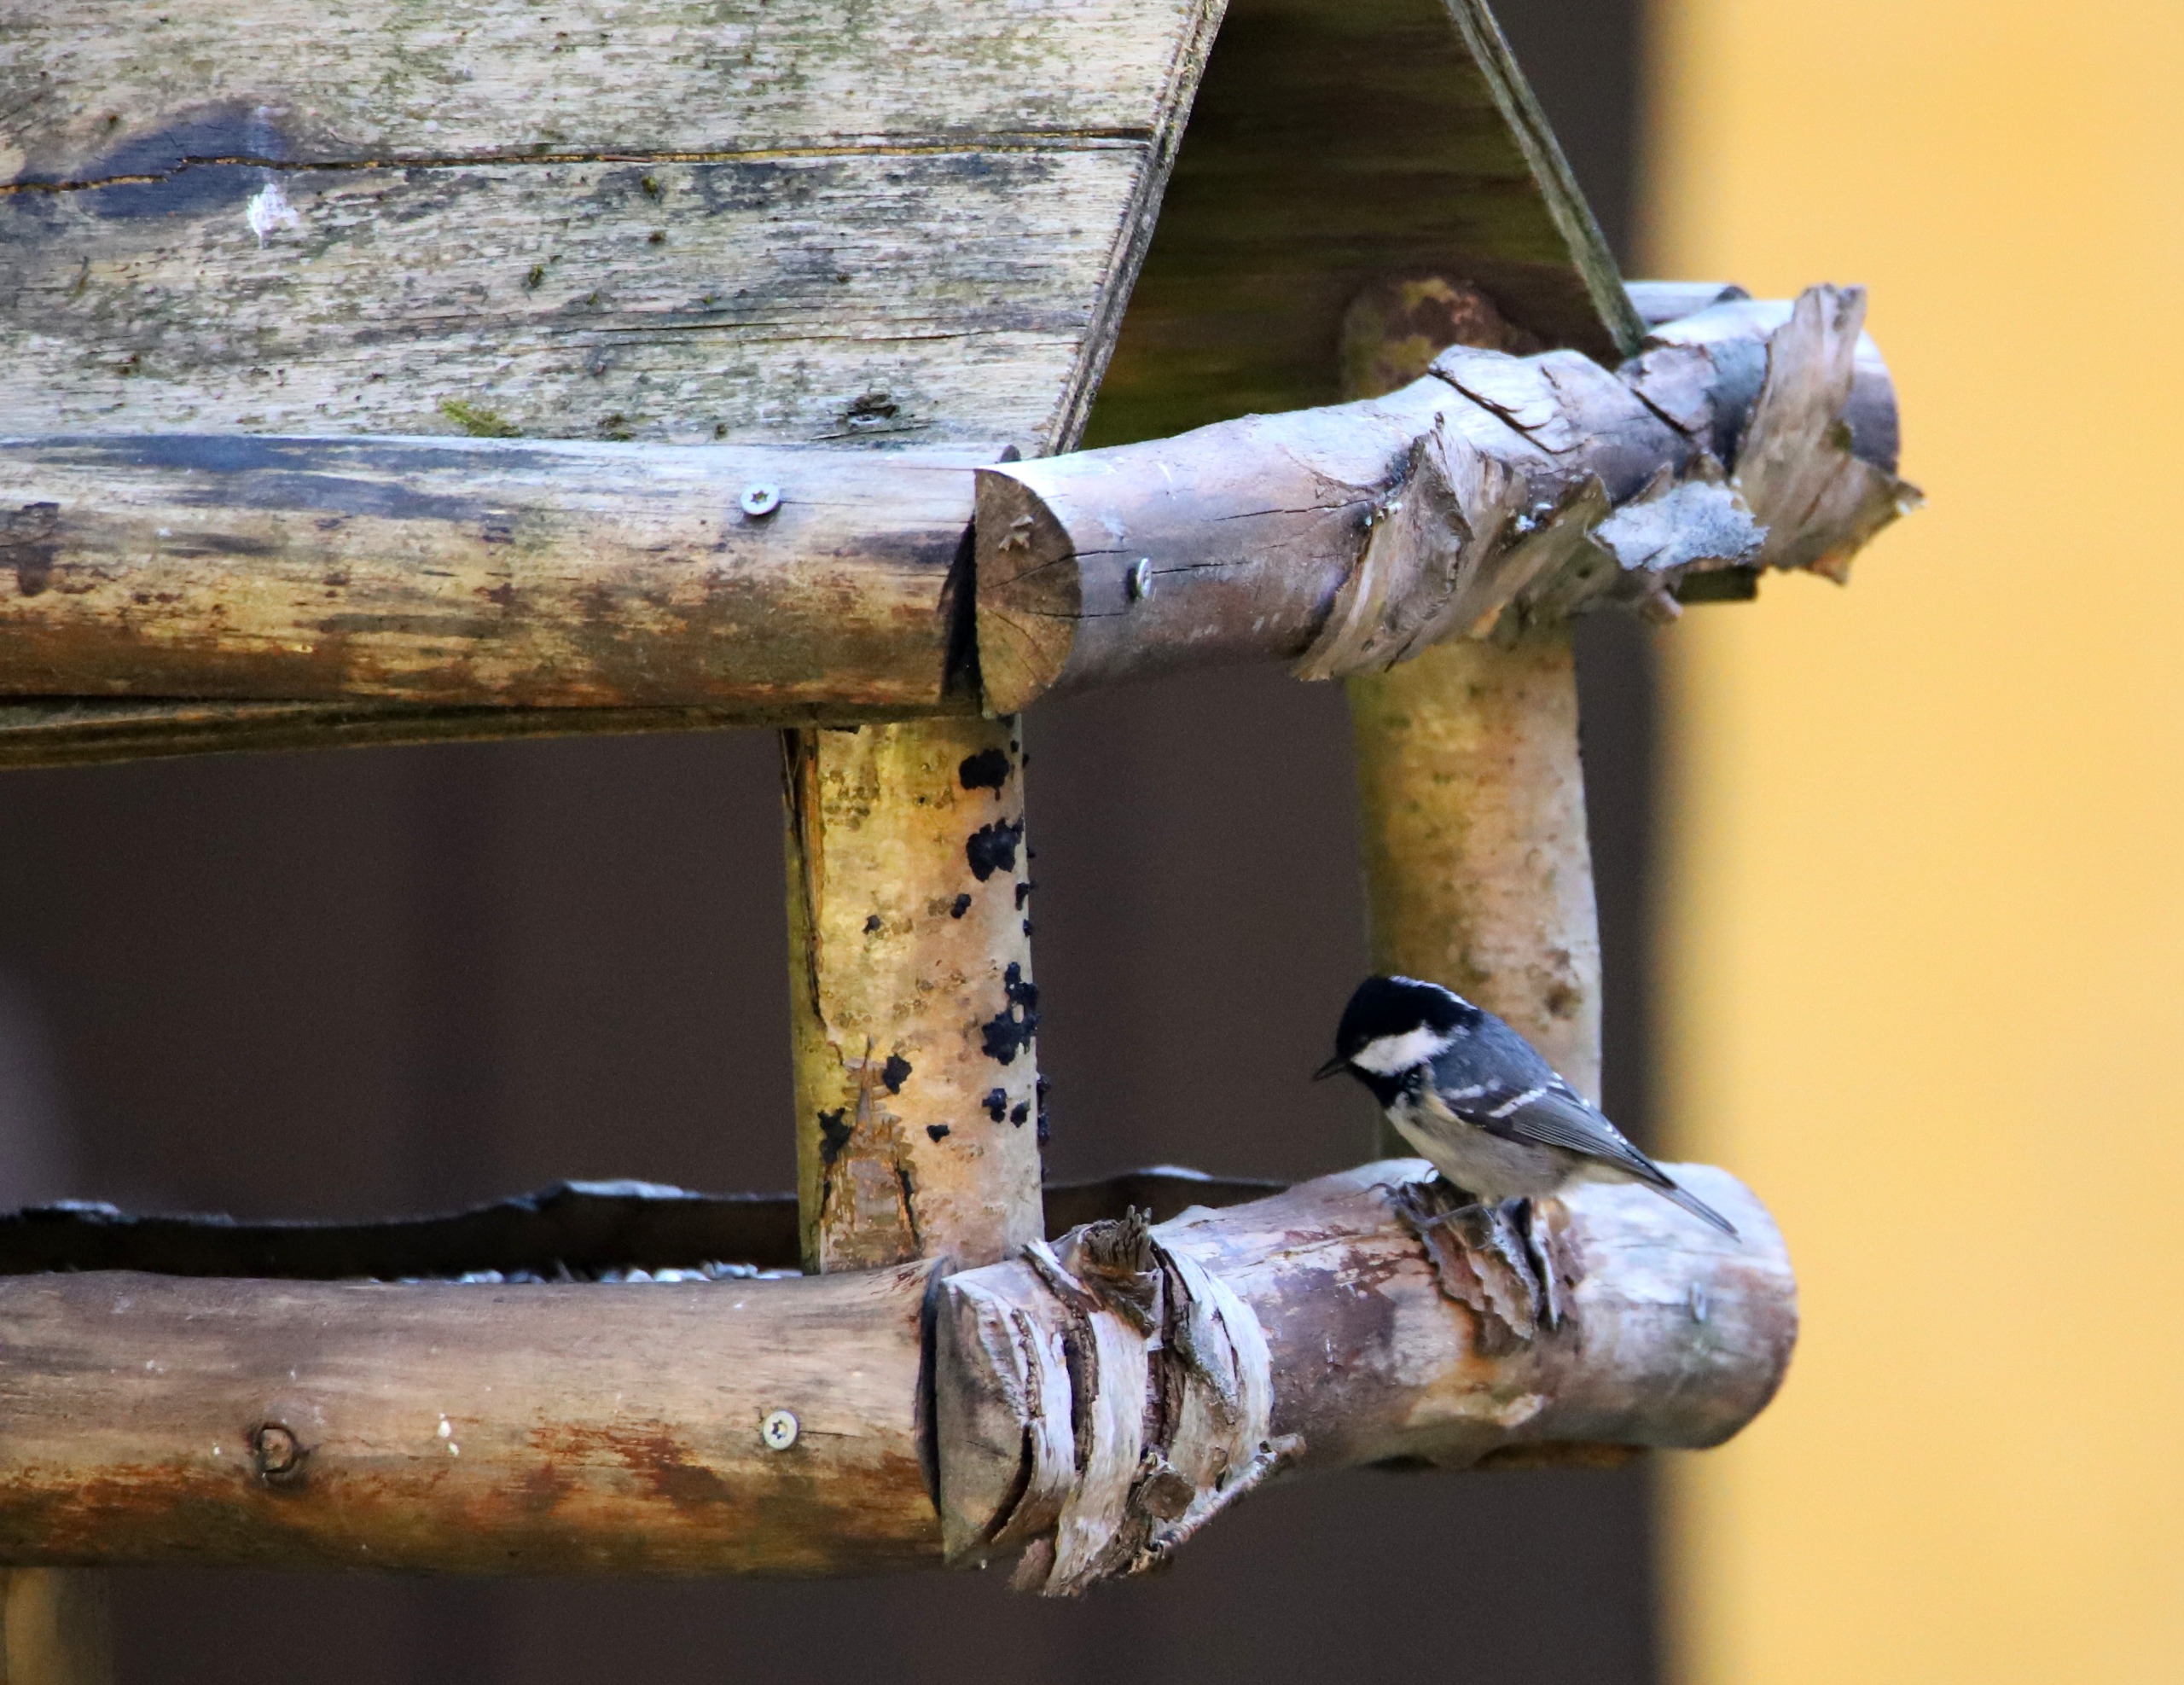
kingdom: Animalia
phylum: Chordata
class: Aves
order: Passeriformes
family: Paridae
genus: Periparus
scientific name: Periparus ater
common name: Sortmejse
